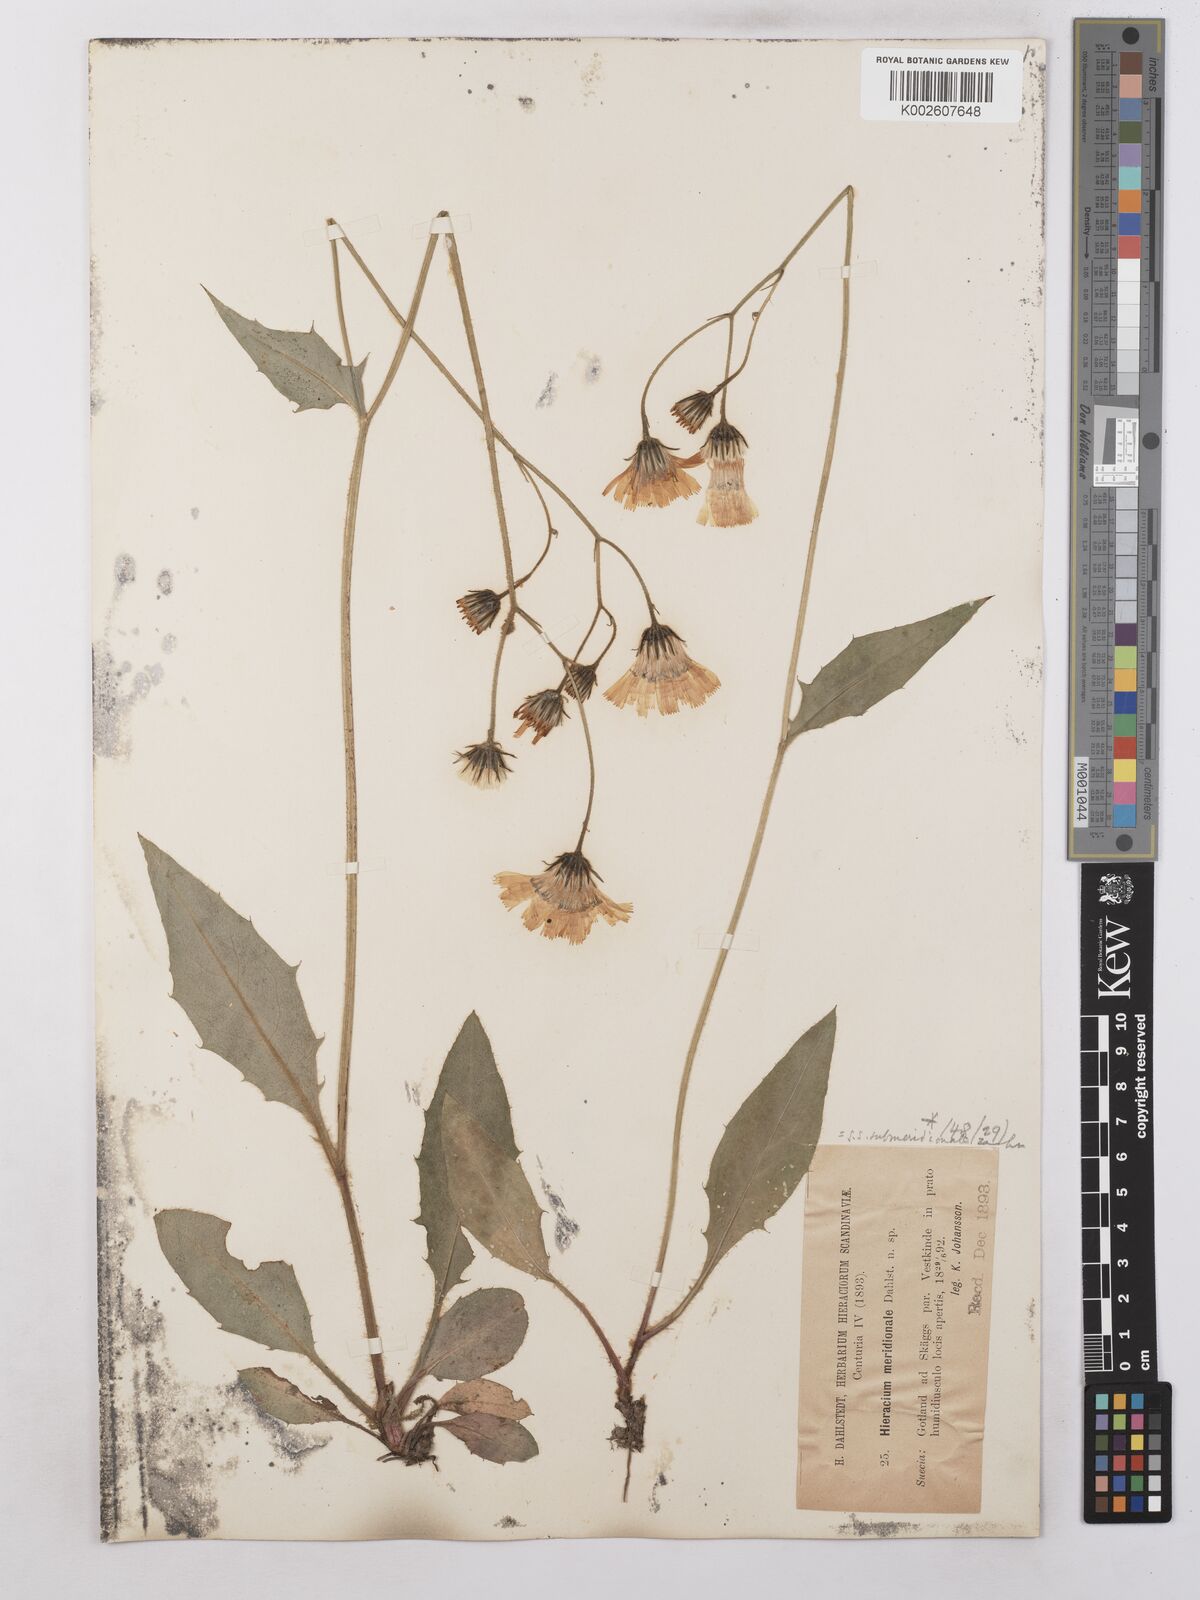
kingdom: Plantae
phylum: Tracheophyta
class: Magnoliopsida
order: Asterales
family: Asteraceae
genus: Hieracium
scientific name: Hieracium subramosum
